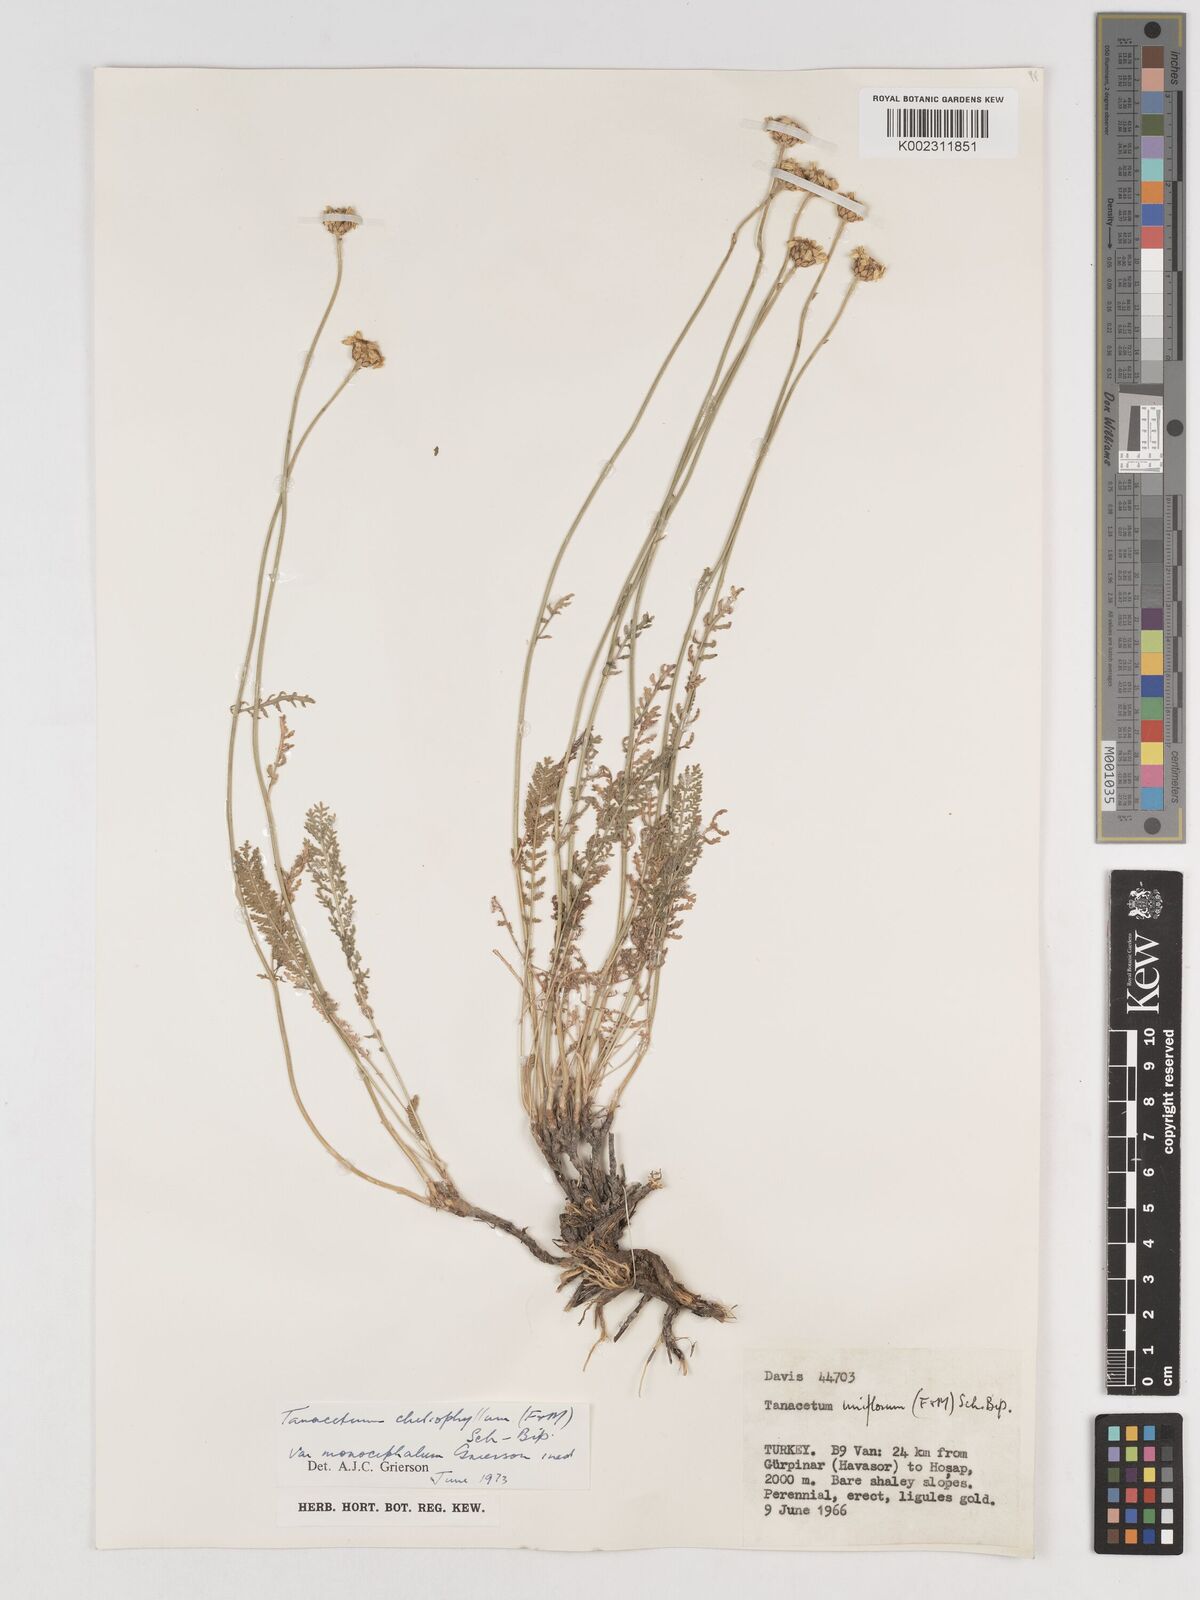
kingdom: Plantae
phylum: Tracheophyta
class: Magnoliopsida
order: Asterales
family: Asteraceae
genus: Tanacetum
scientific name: Tanacetum aureum
